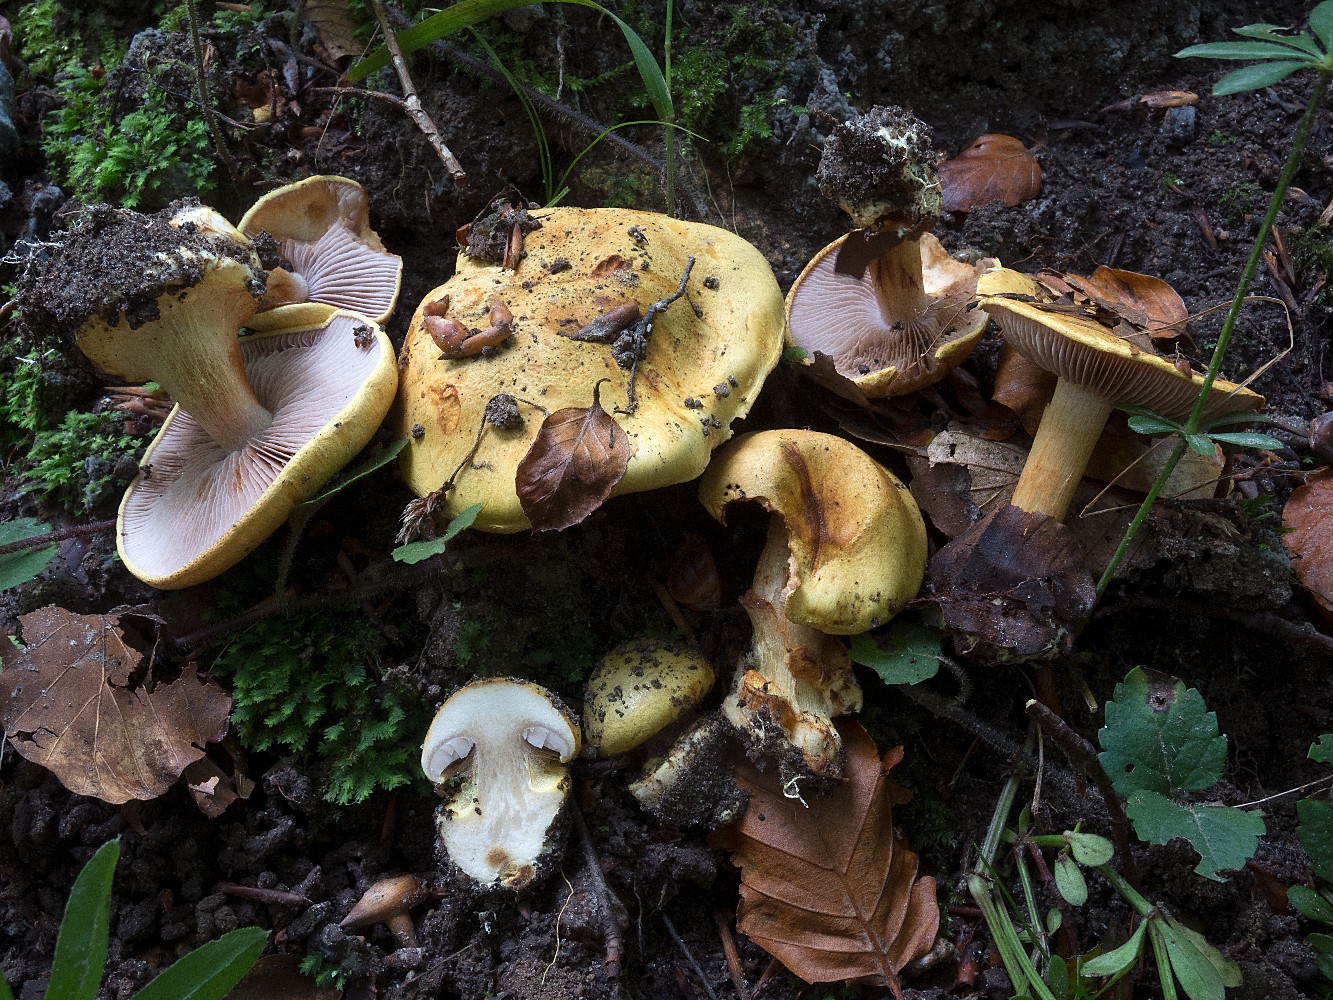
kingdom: Fungi
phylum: Basidiomycota
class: Agaricomycetes
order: Agaricales
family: Cortinariaceae
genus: Calonarius
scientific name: Calonarius callochrous
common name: lillabladet slørhat
